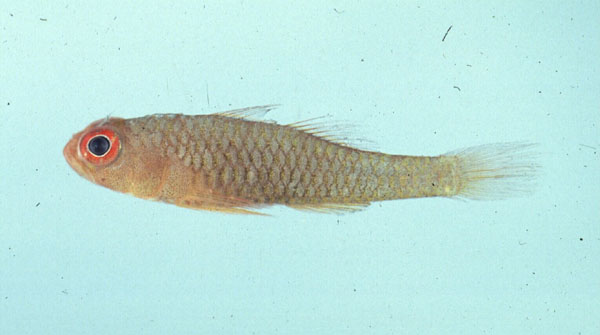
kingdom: Animalia
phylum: Chordata
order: Perciformes
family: Gobiidae
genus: Trimma
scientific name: Trimma emeryi
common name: Emery's goby
